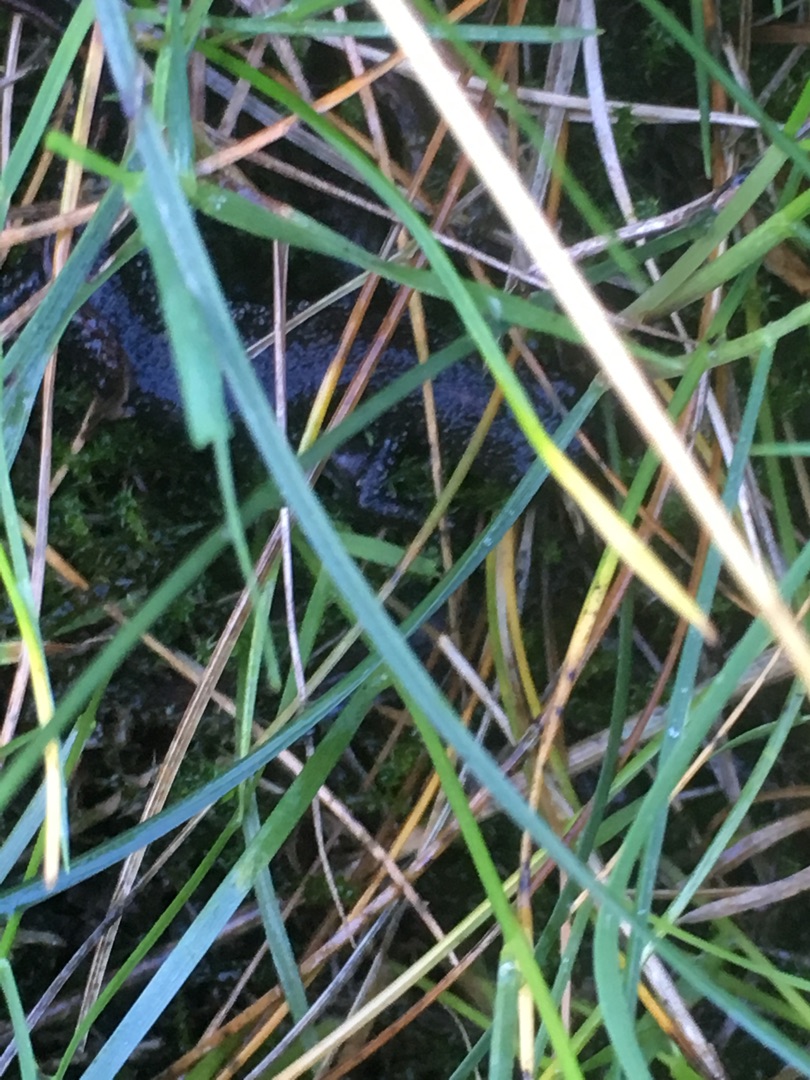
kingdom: Animalia
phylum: Chordata
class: Amphibia
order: Caudata
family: Salamandridae
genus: Triturus
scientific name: Triturus cristatus
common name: Stor vandsalamander
